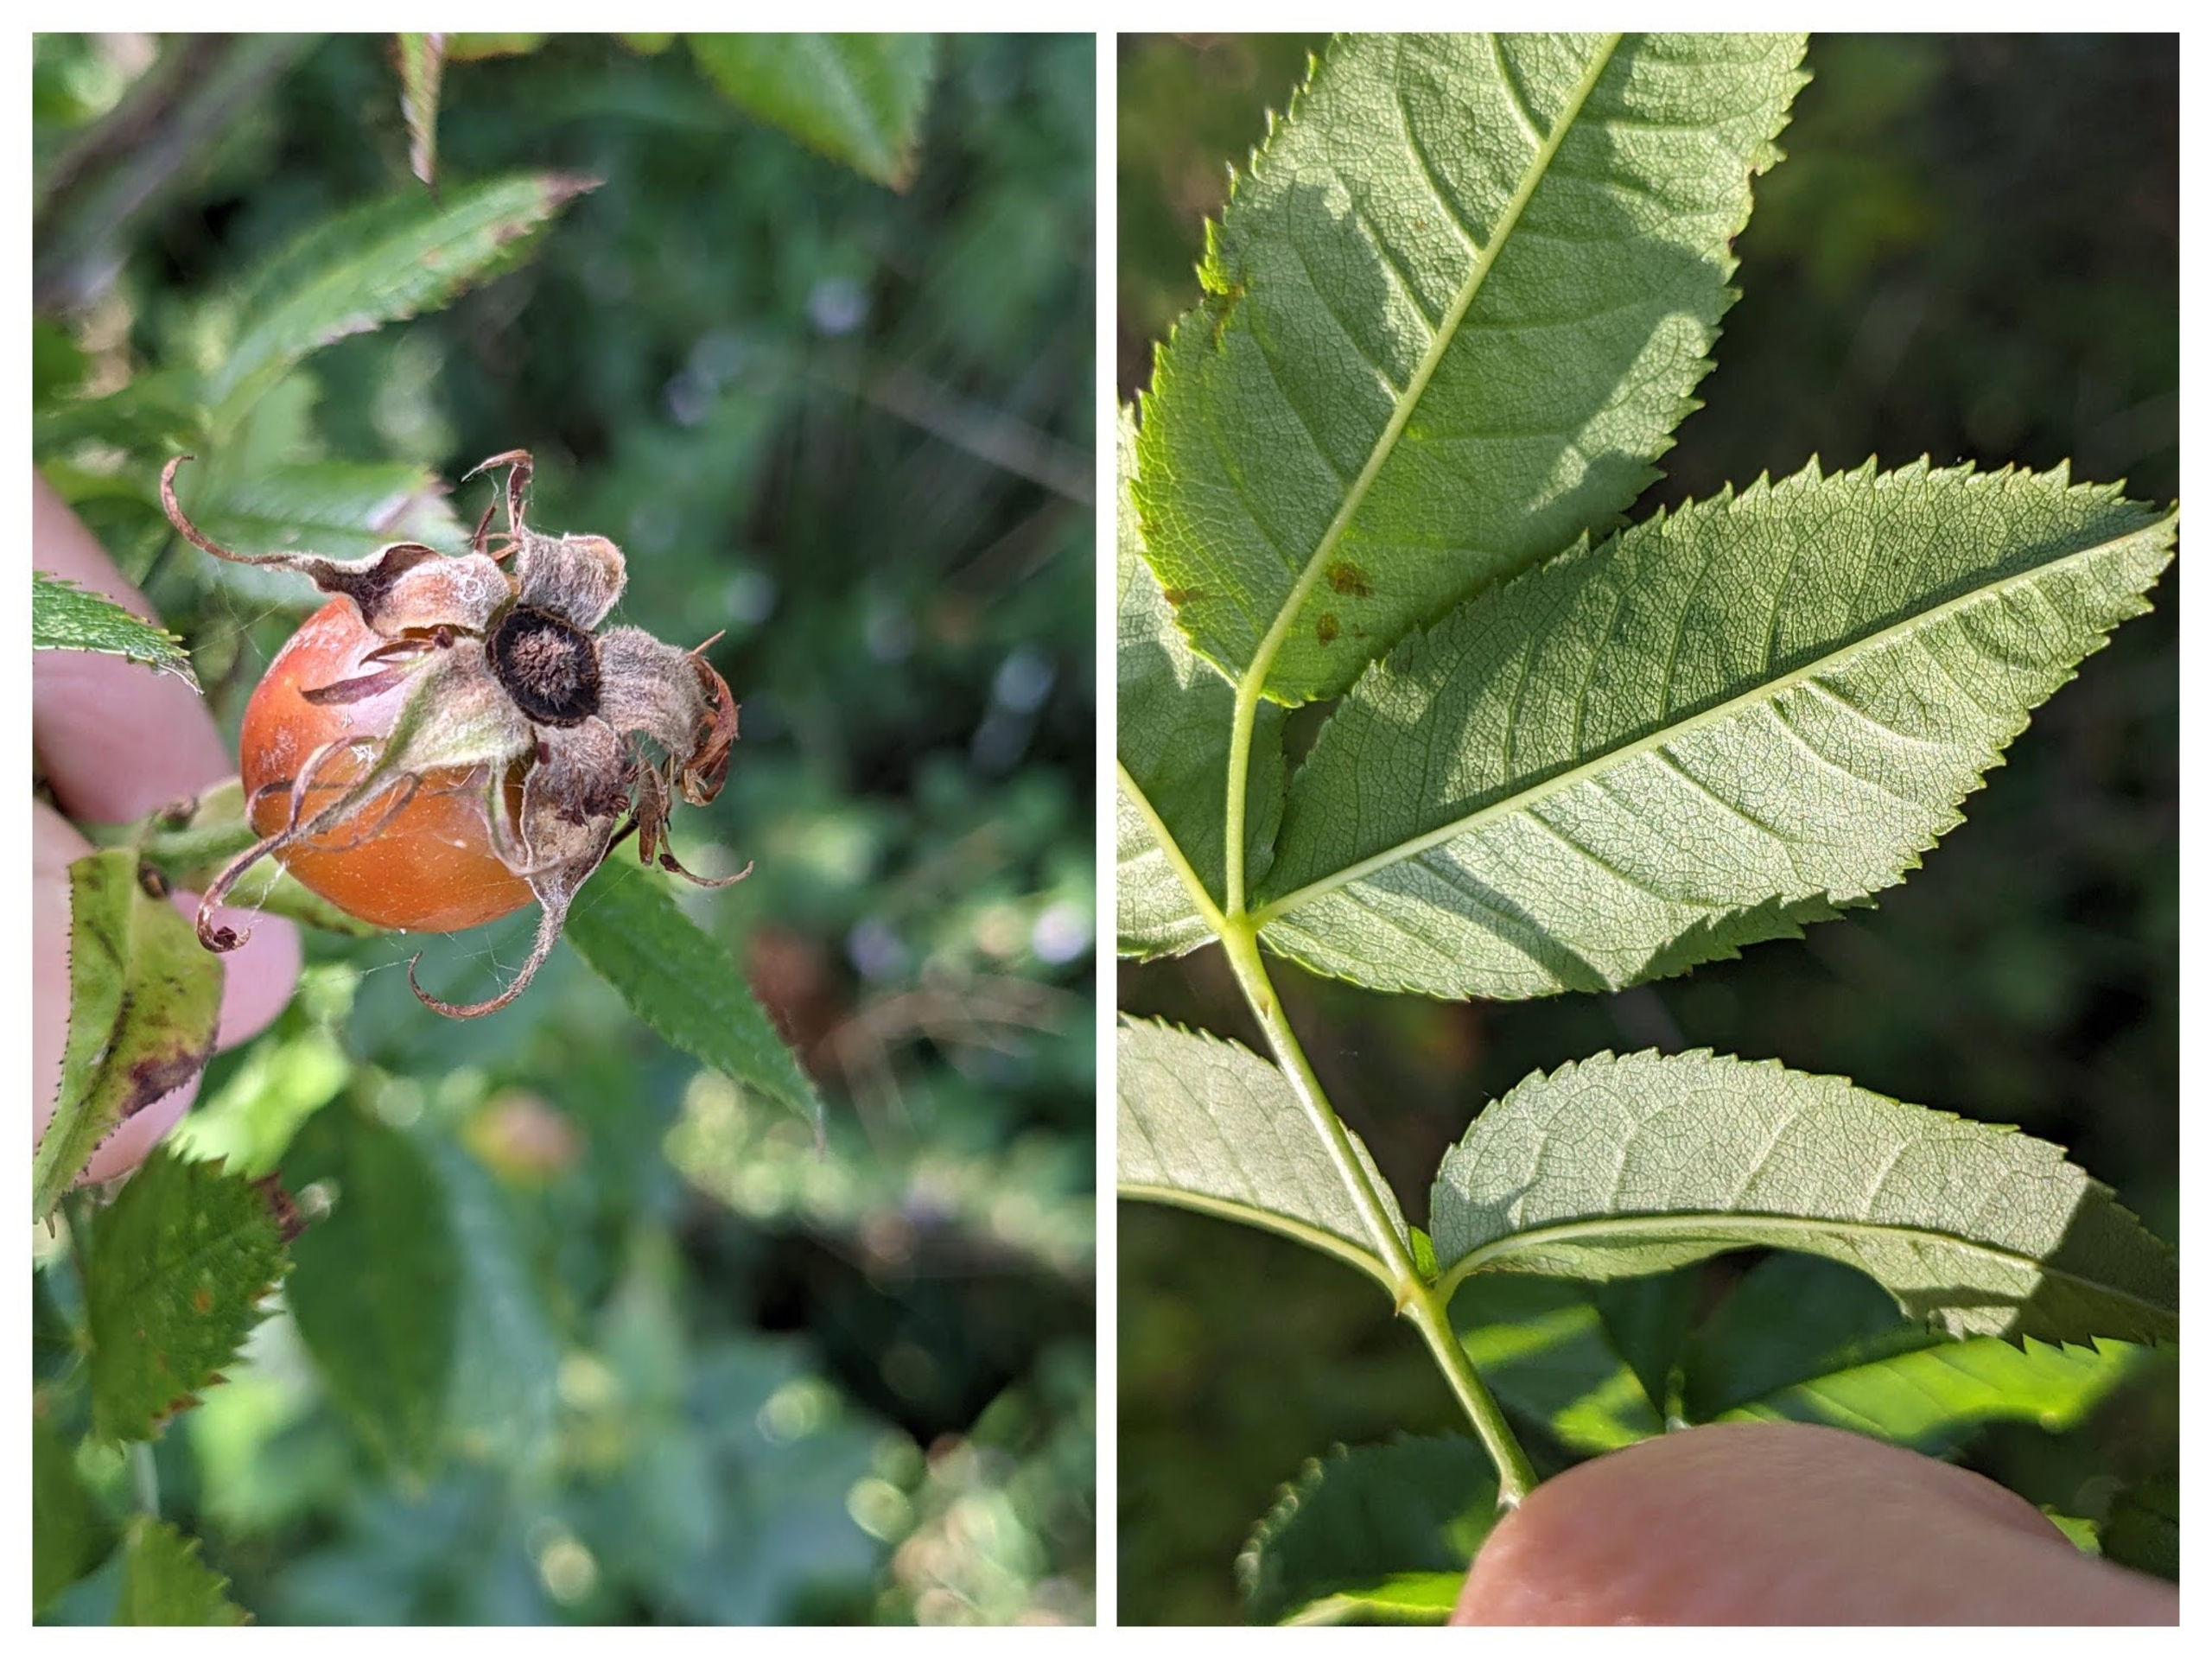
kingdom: Plantae
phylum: Tracheophyta
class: Magnoliopsida
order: Rosales
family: Rosaceae
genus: Rosa
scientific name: Rosa dumalis
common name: Blågrøn rose (underart)
